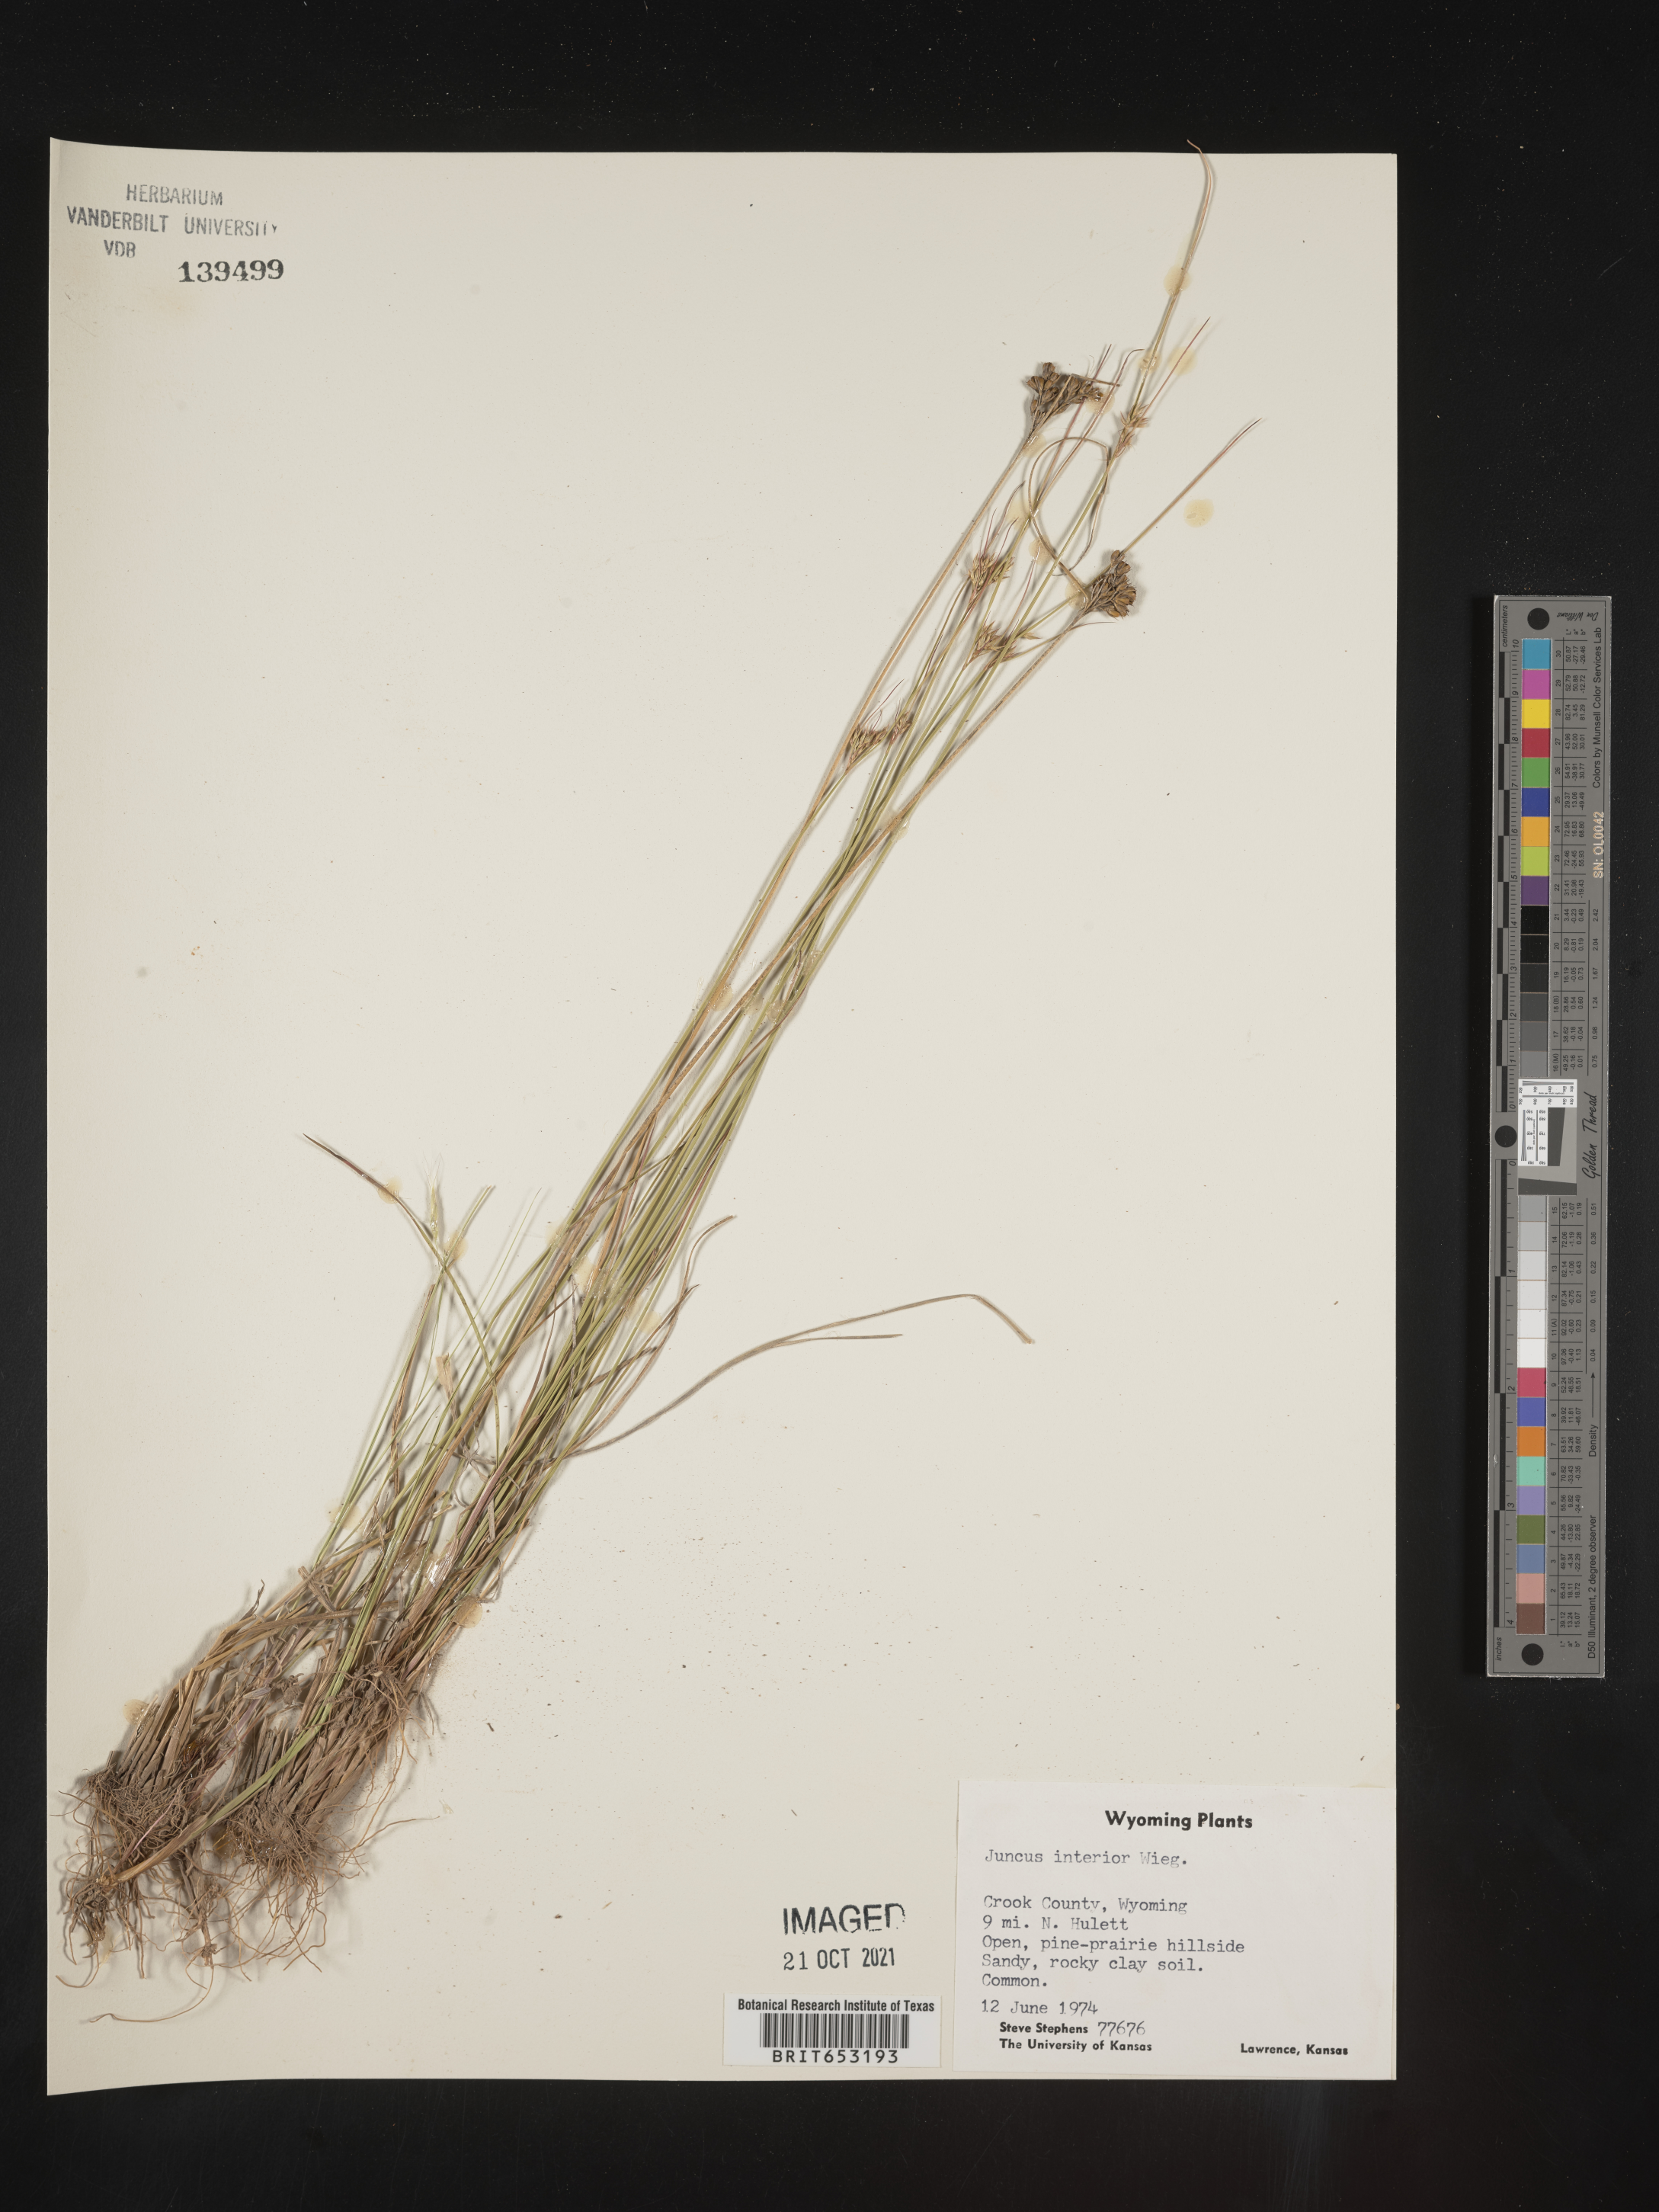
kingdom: Plantae
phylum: Tracheophyta
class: Liliopsida
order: Poales
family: Juncaceae
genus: Juncus
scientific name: Juncus interior
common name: Interior rush
